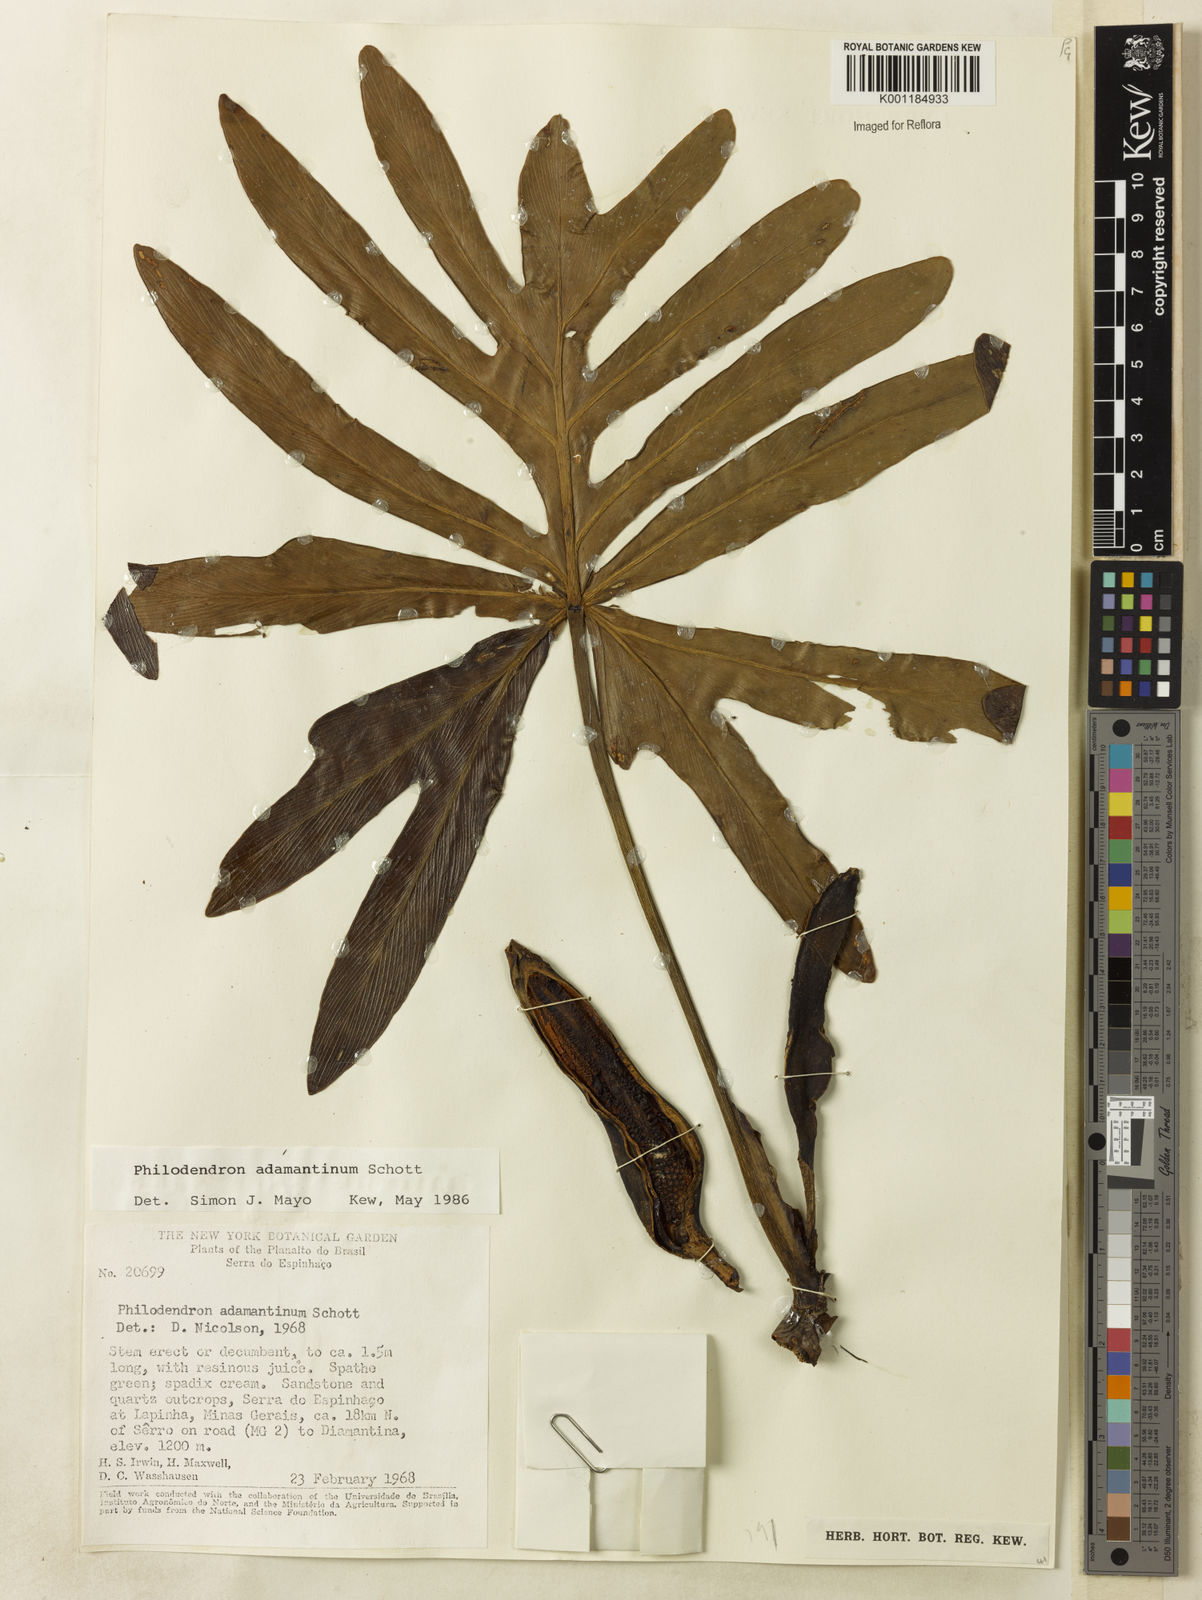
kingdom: Plantae
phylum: Tracheophyta
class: Liliopsida
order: Alismatales
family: Araceae
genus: Thaumatophyllum
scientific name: Thaumatophyllum adamantinum
